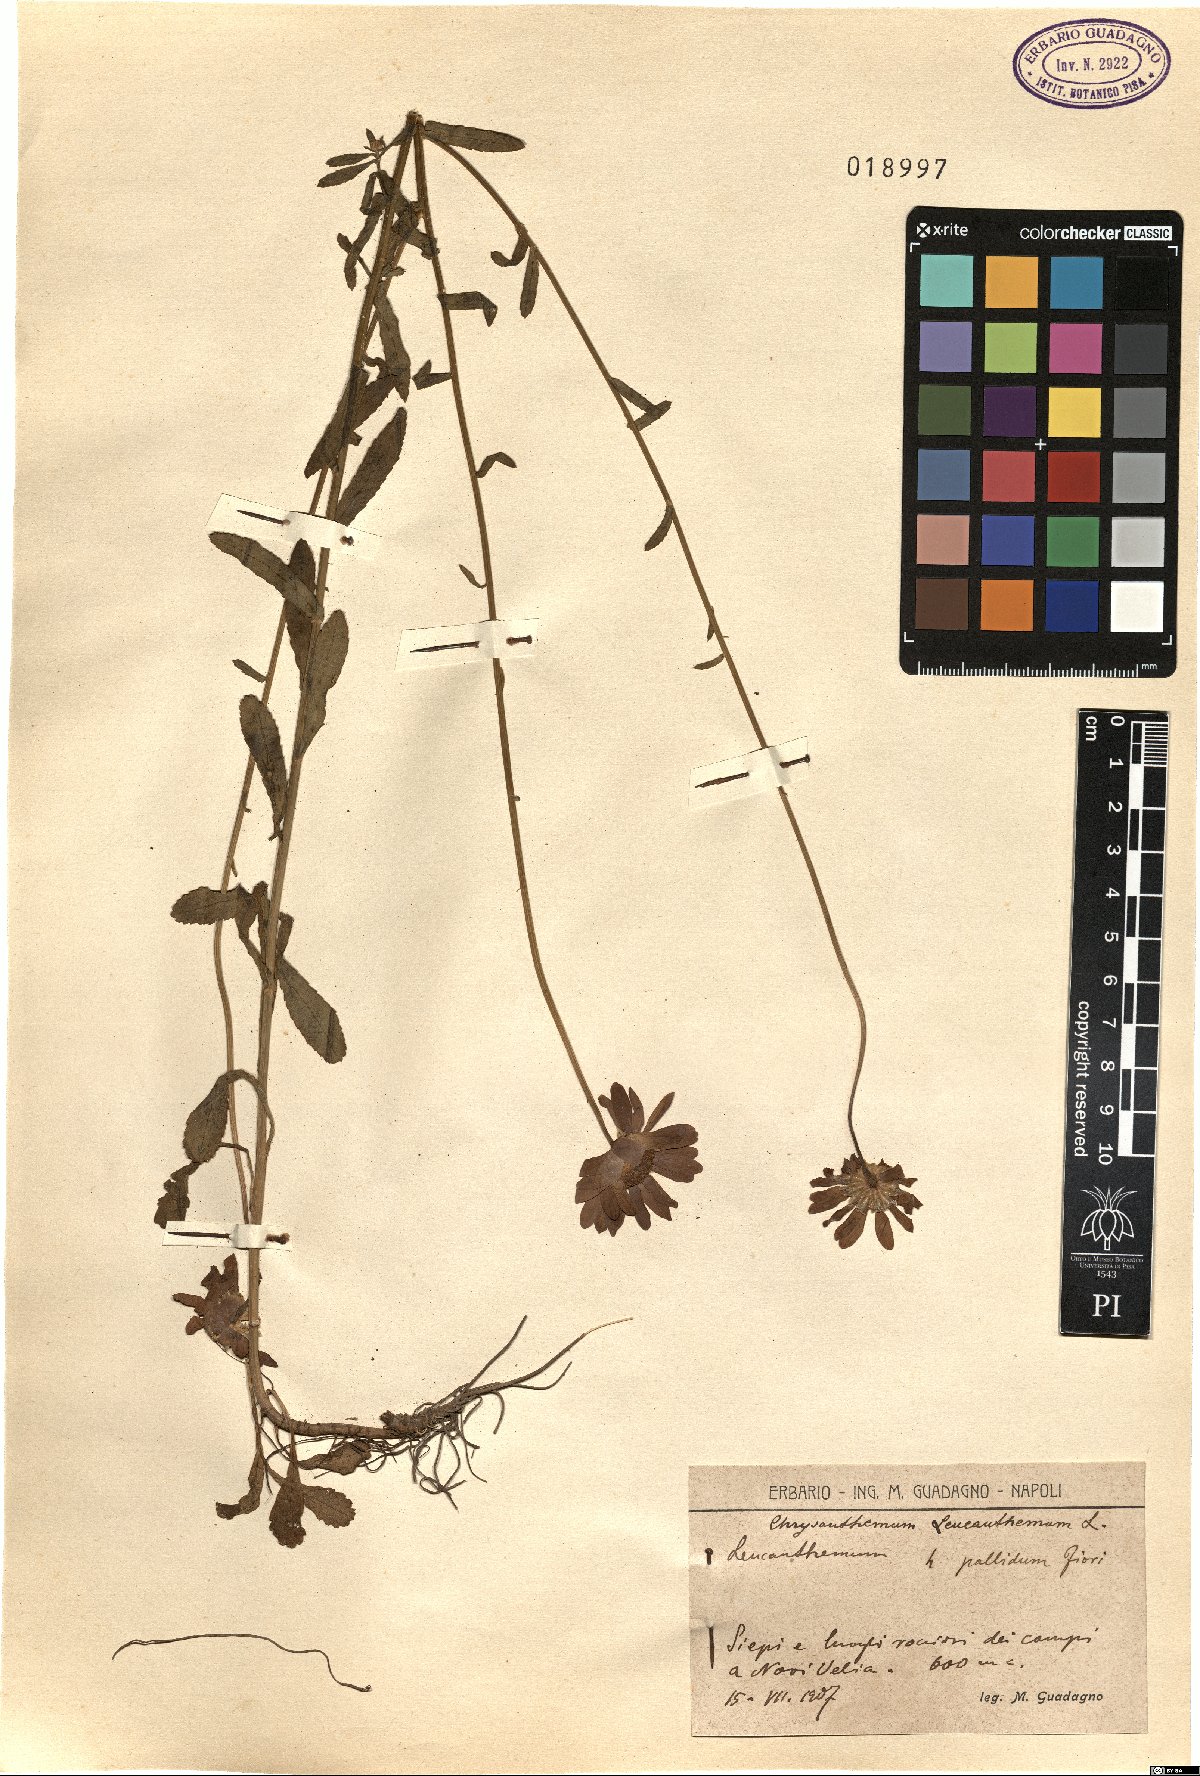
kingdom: Plantae
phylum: Tracheophyta
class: Magnoliopsida
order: Asterales
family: Asteraceae
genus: Leucanthemum
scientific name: Leucanthemum vulgare
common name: Oxeye daisy
